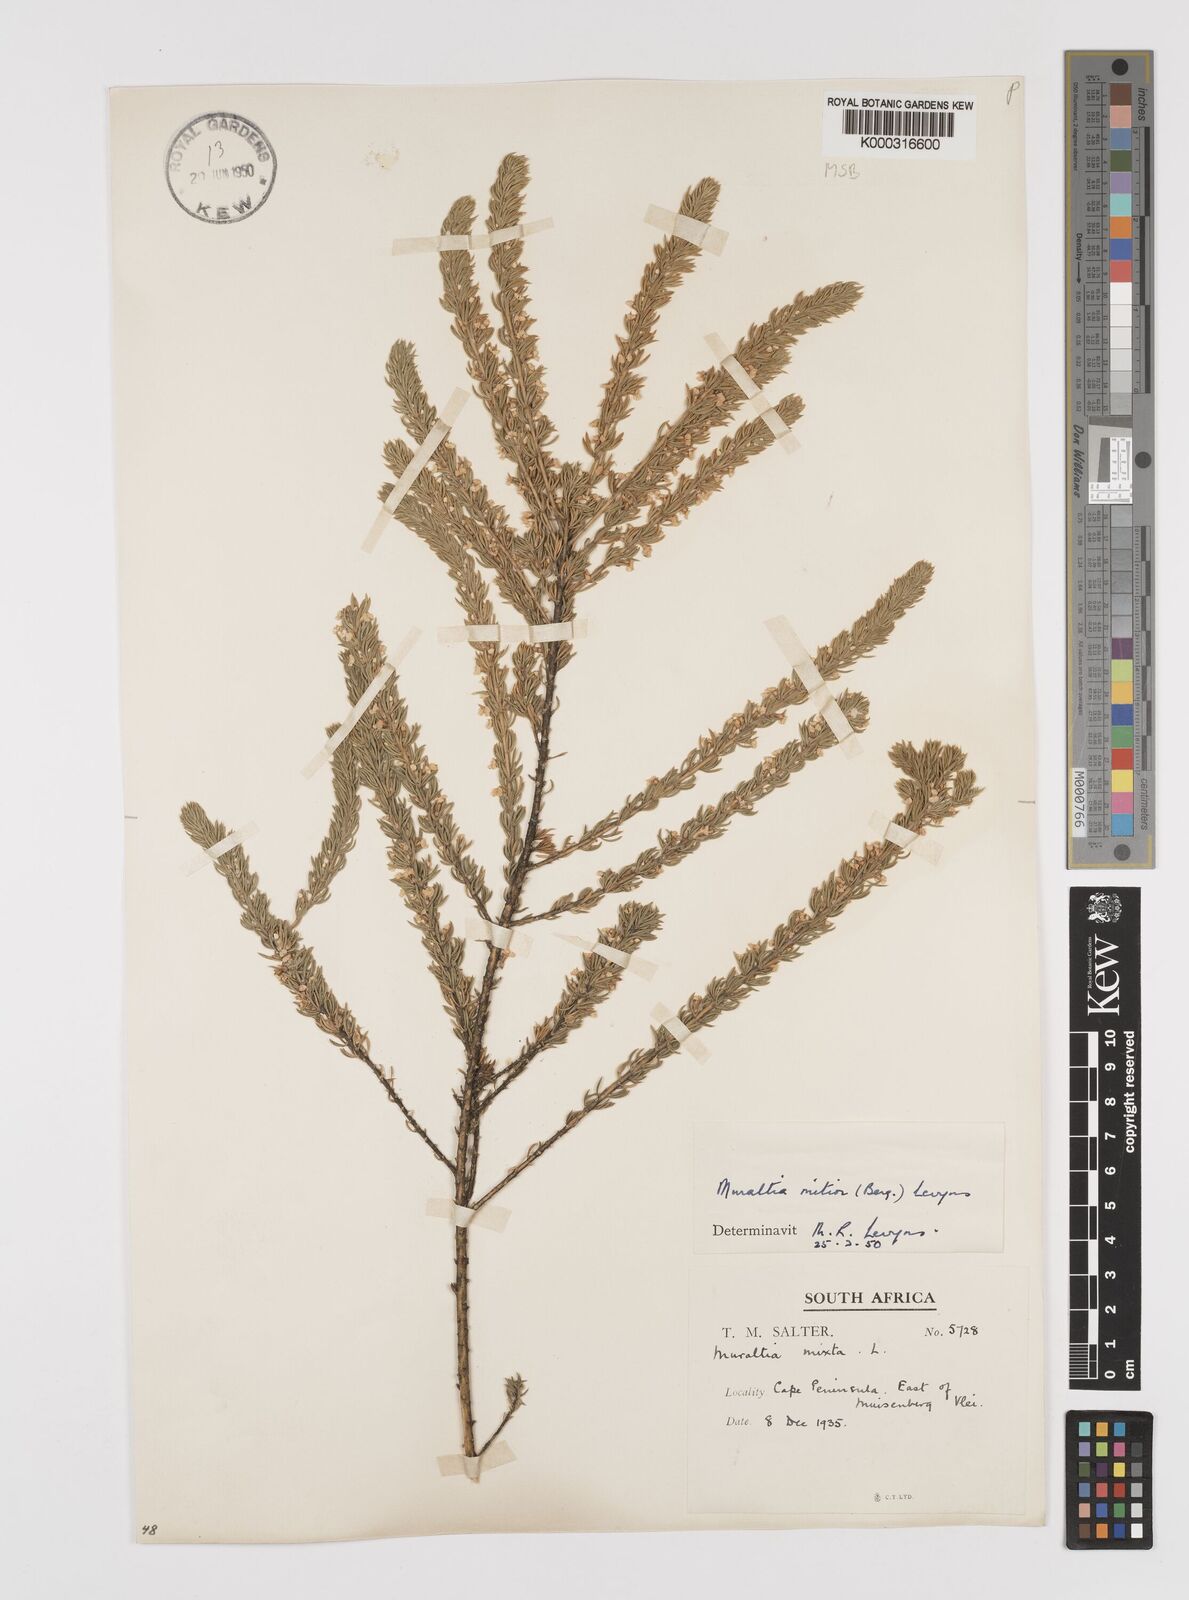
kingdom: Plantae
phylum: Tracheophyta
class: Magnoliopsida
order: Fabales
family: Polygalaceae
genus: Muraltia
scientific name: Muraltia
